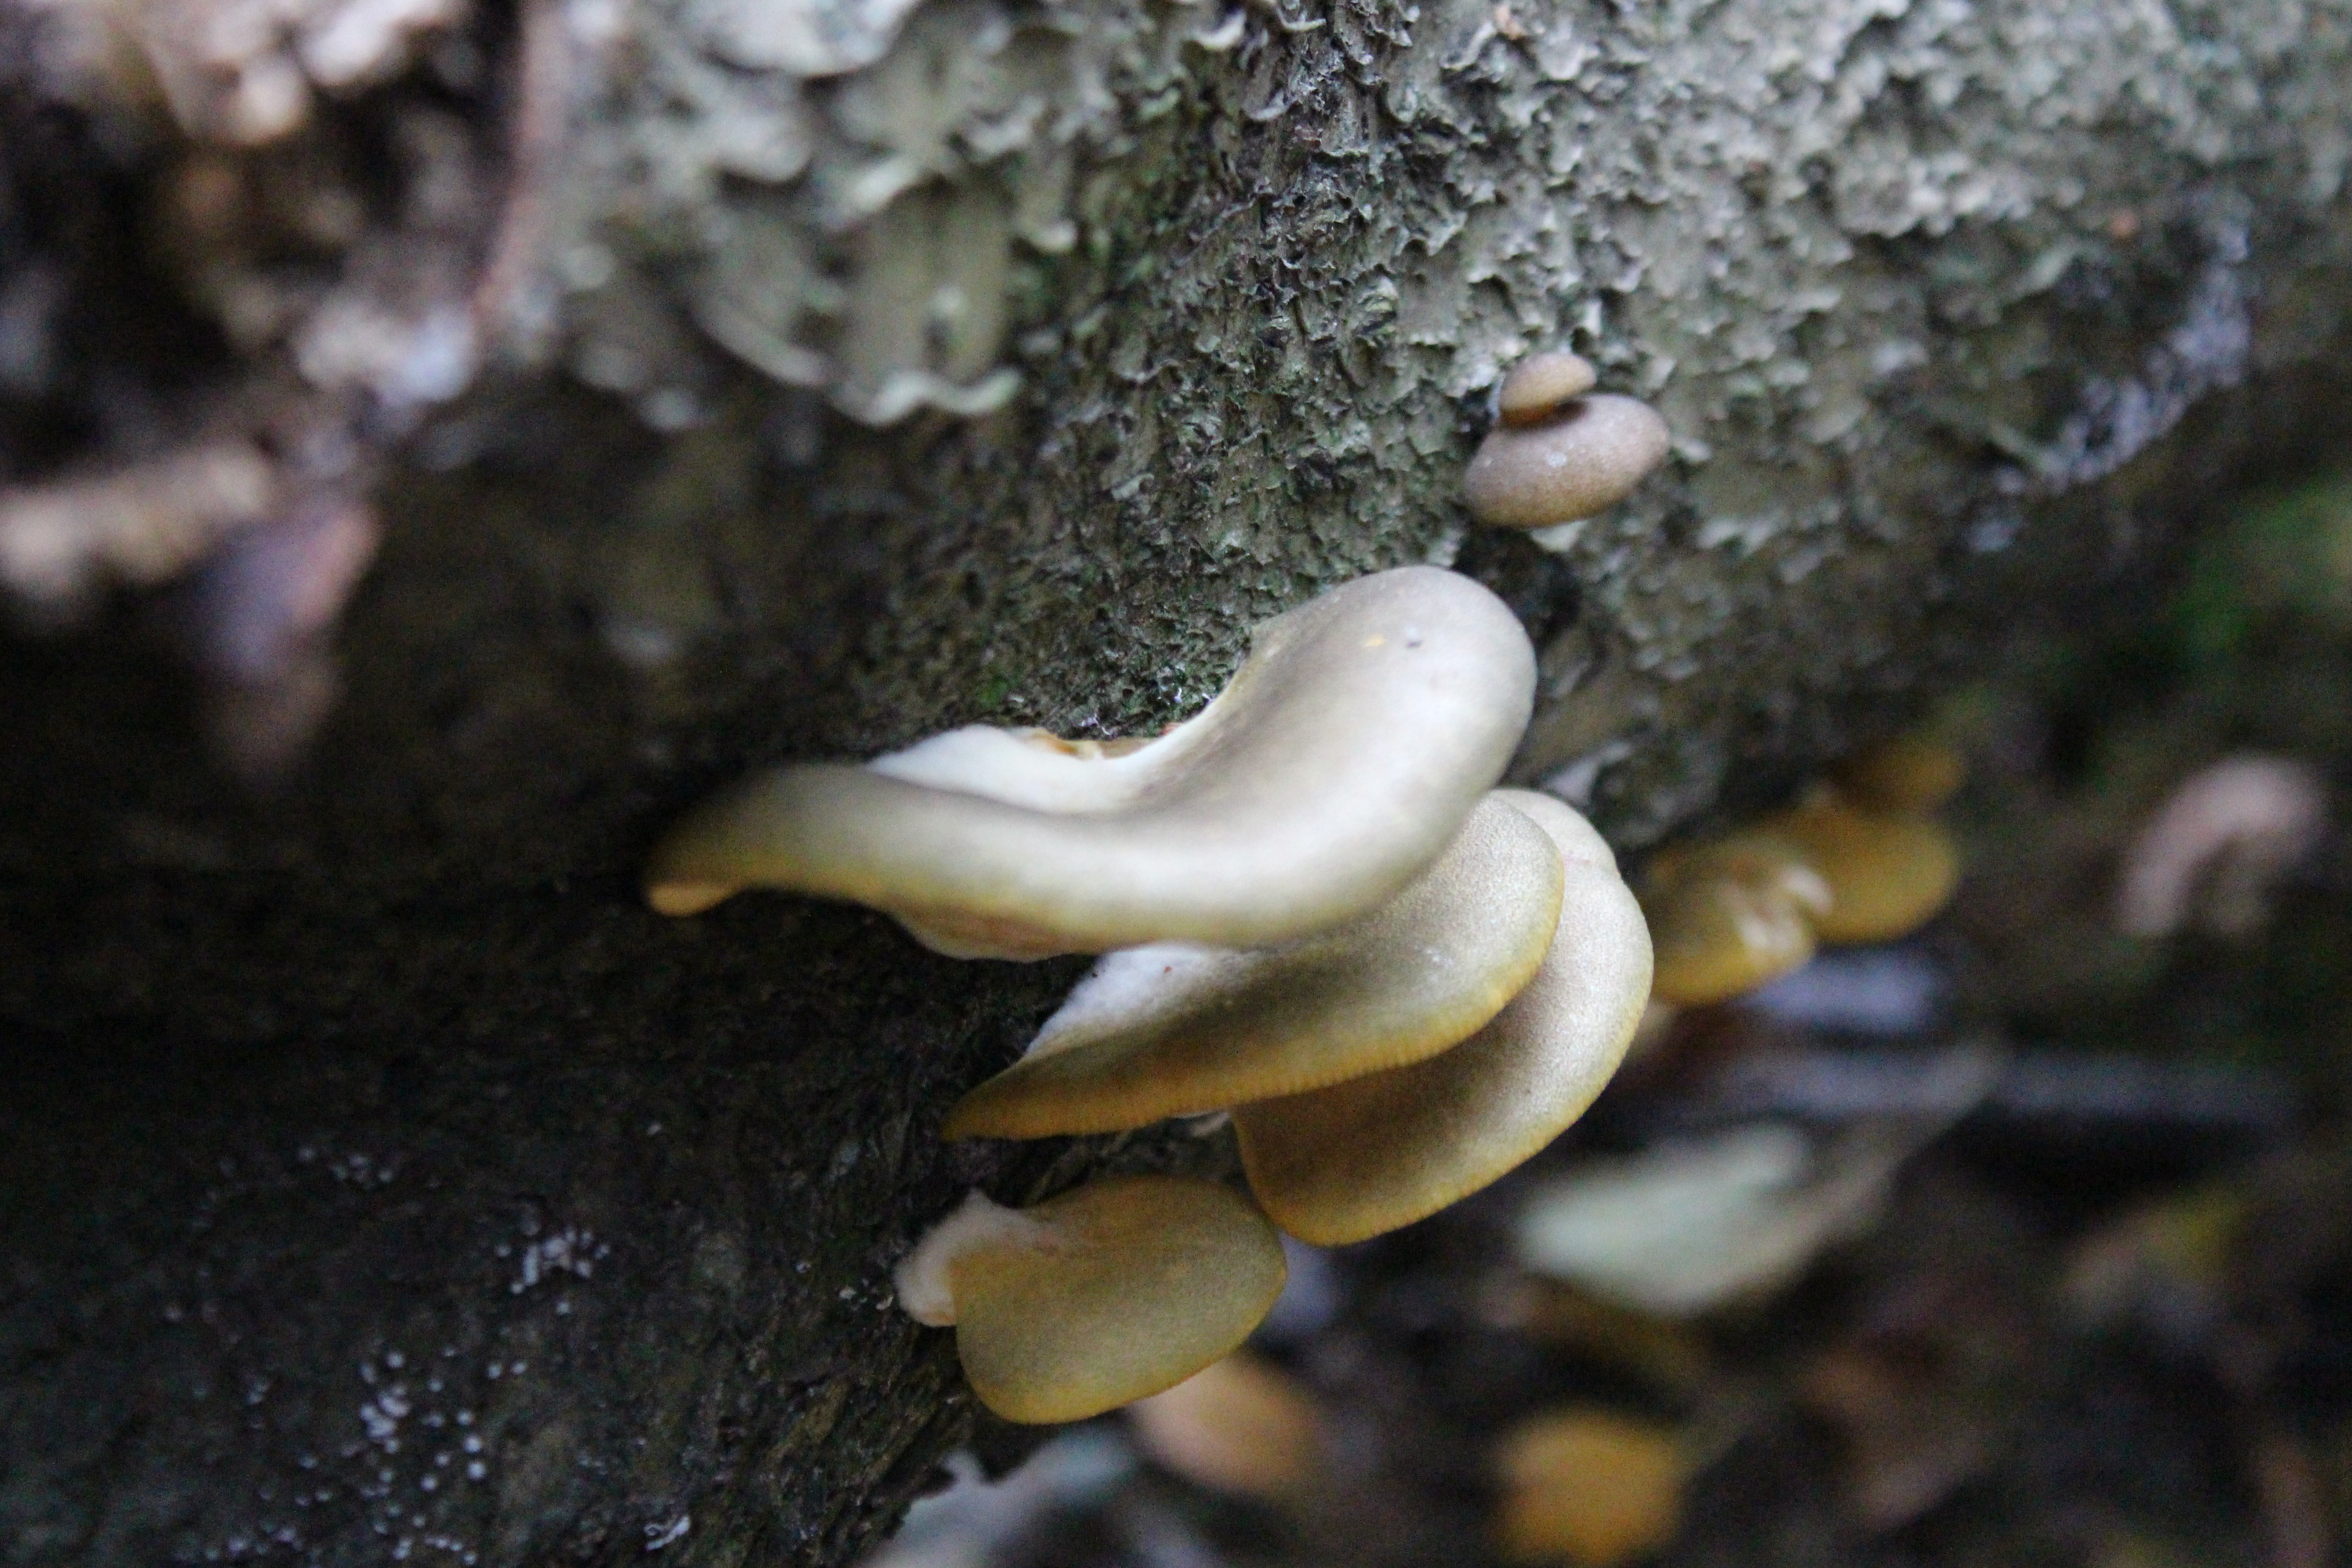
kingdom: Fungi
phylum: Basidiomycota
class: Agaricomycetes
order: Agaricales
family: Sarcomyxaceae
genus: Sarcomyxa
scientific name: Sarcomyxa serotina
